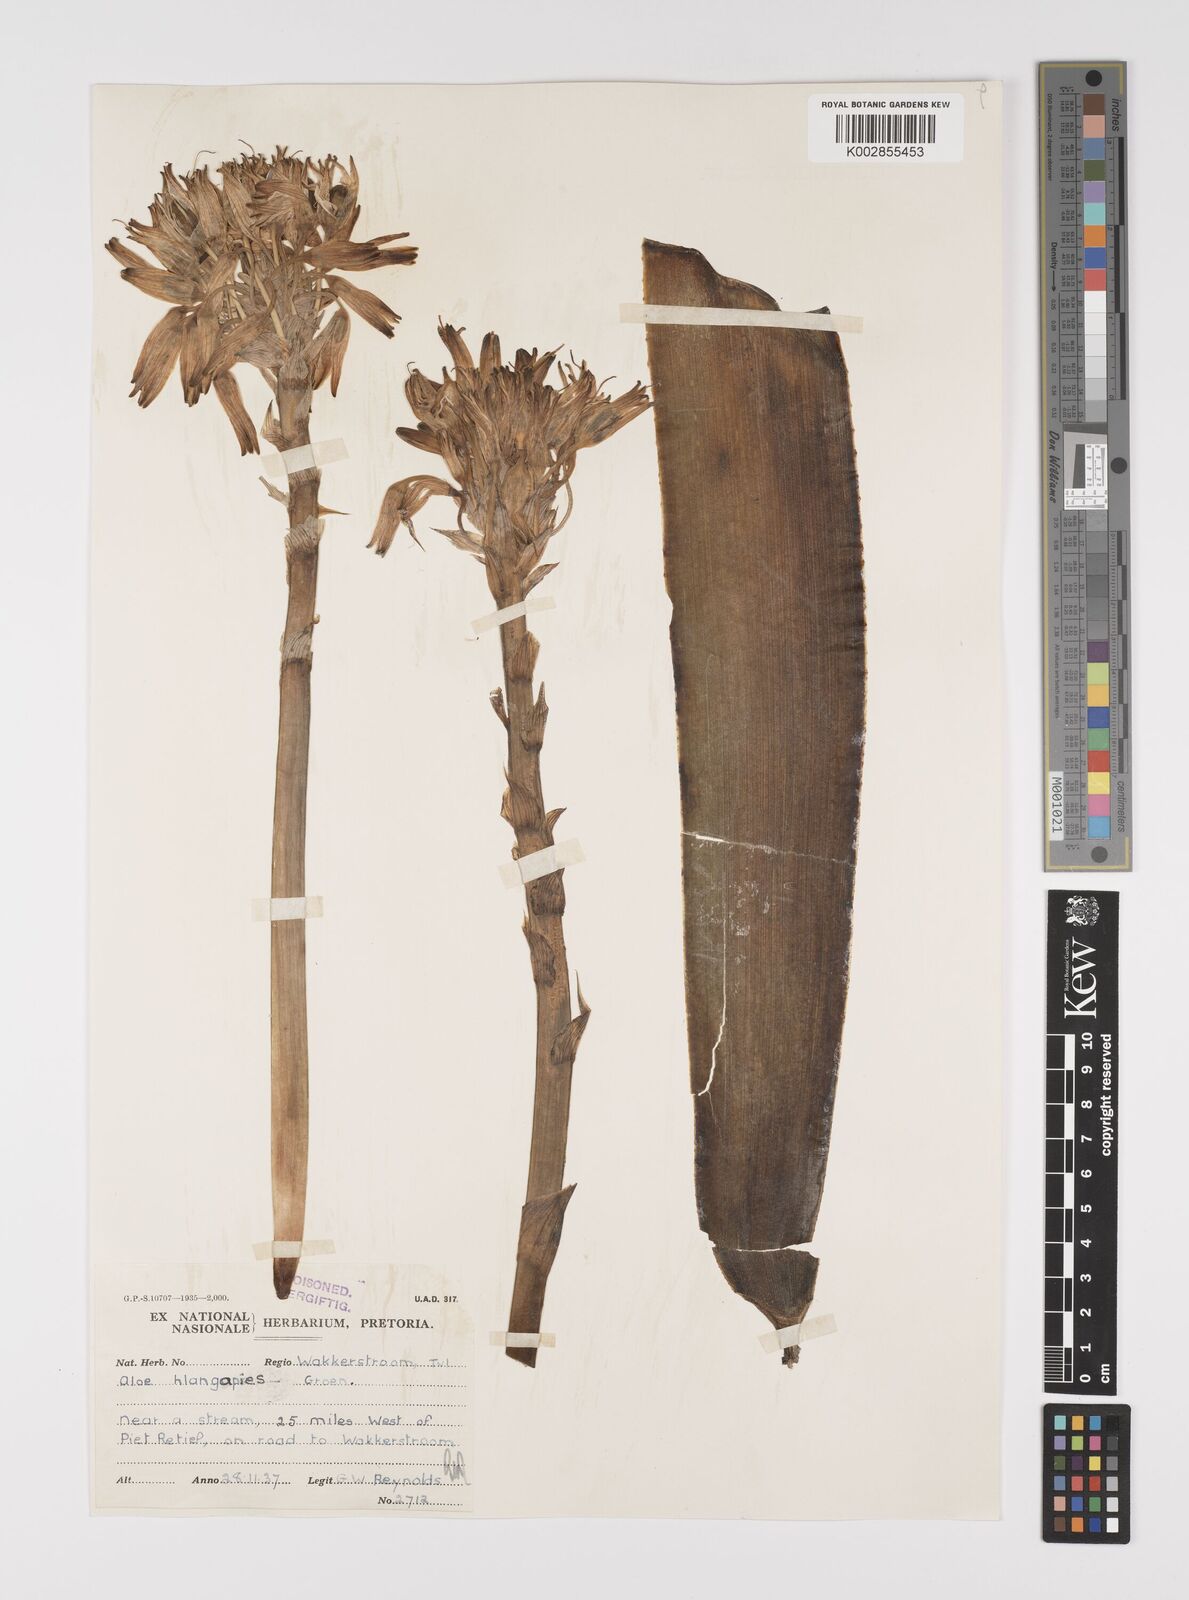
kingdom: Plantae
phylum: Tracheophyta
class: Liliopsida
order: Asparagales
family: Asphodelaceae
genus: Aloe
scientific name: Aloe hlangapies
